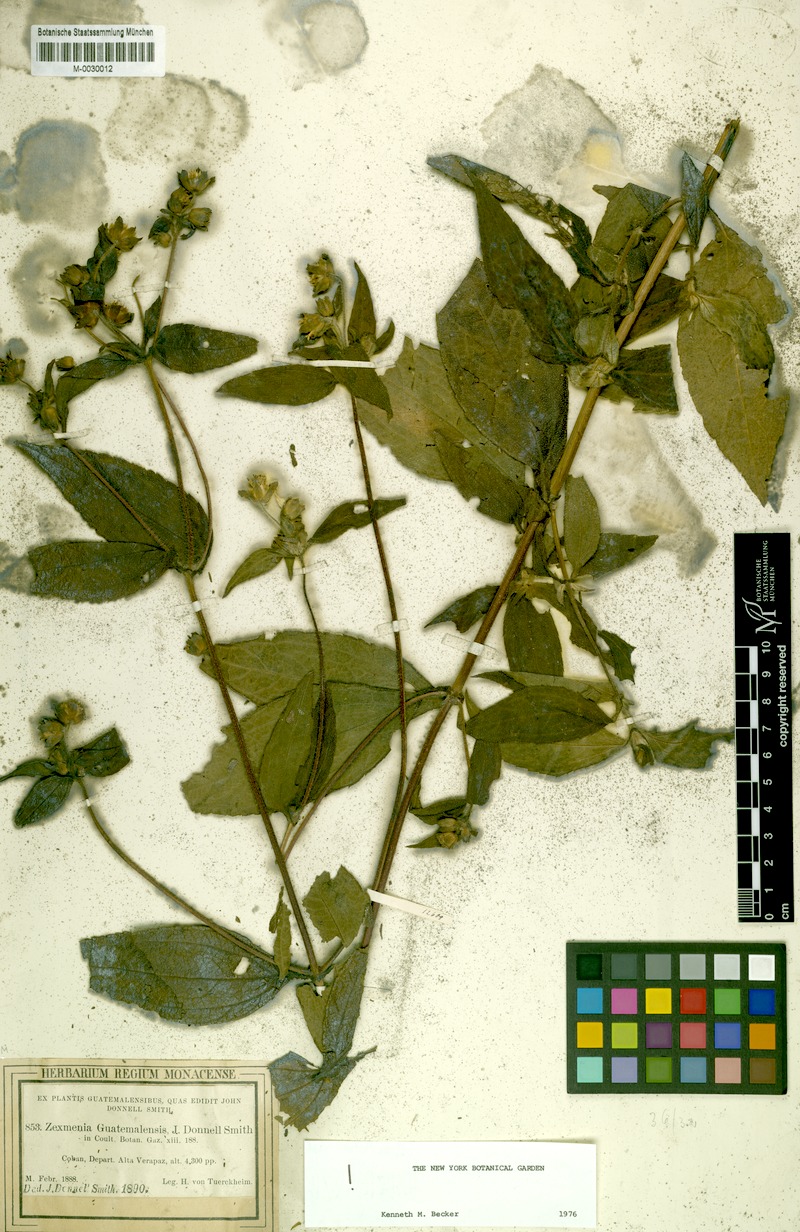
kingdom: Plantae
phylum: Tracheophyta
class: Magnoliopsida
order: Asterales
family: Asteraceae
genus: Lundellianthus
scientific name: Lundellianthus guatemalensis
